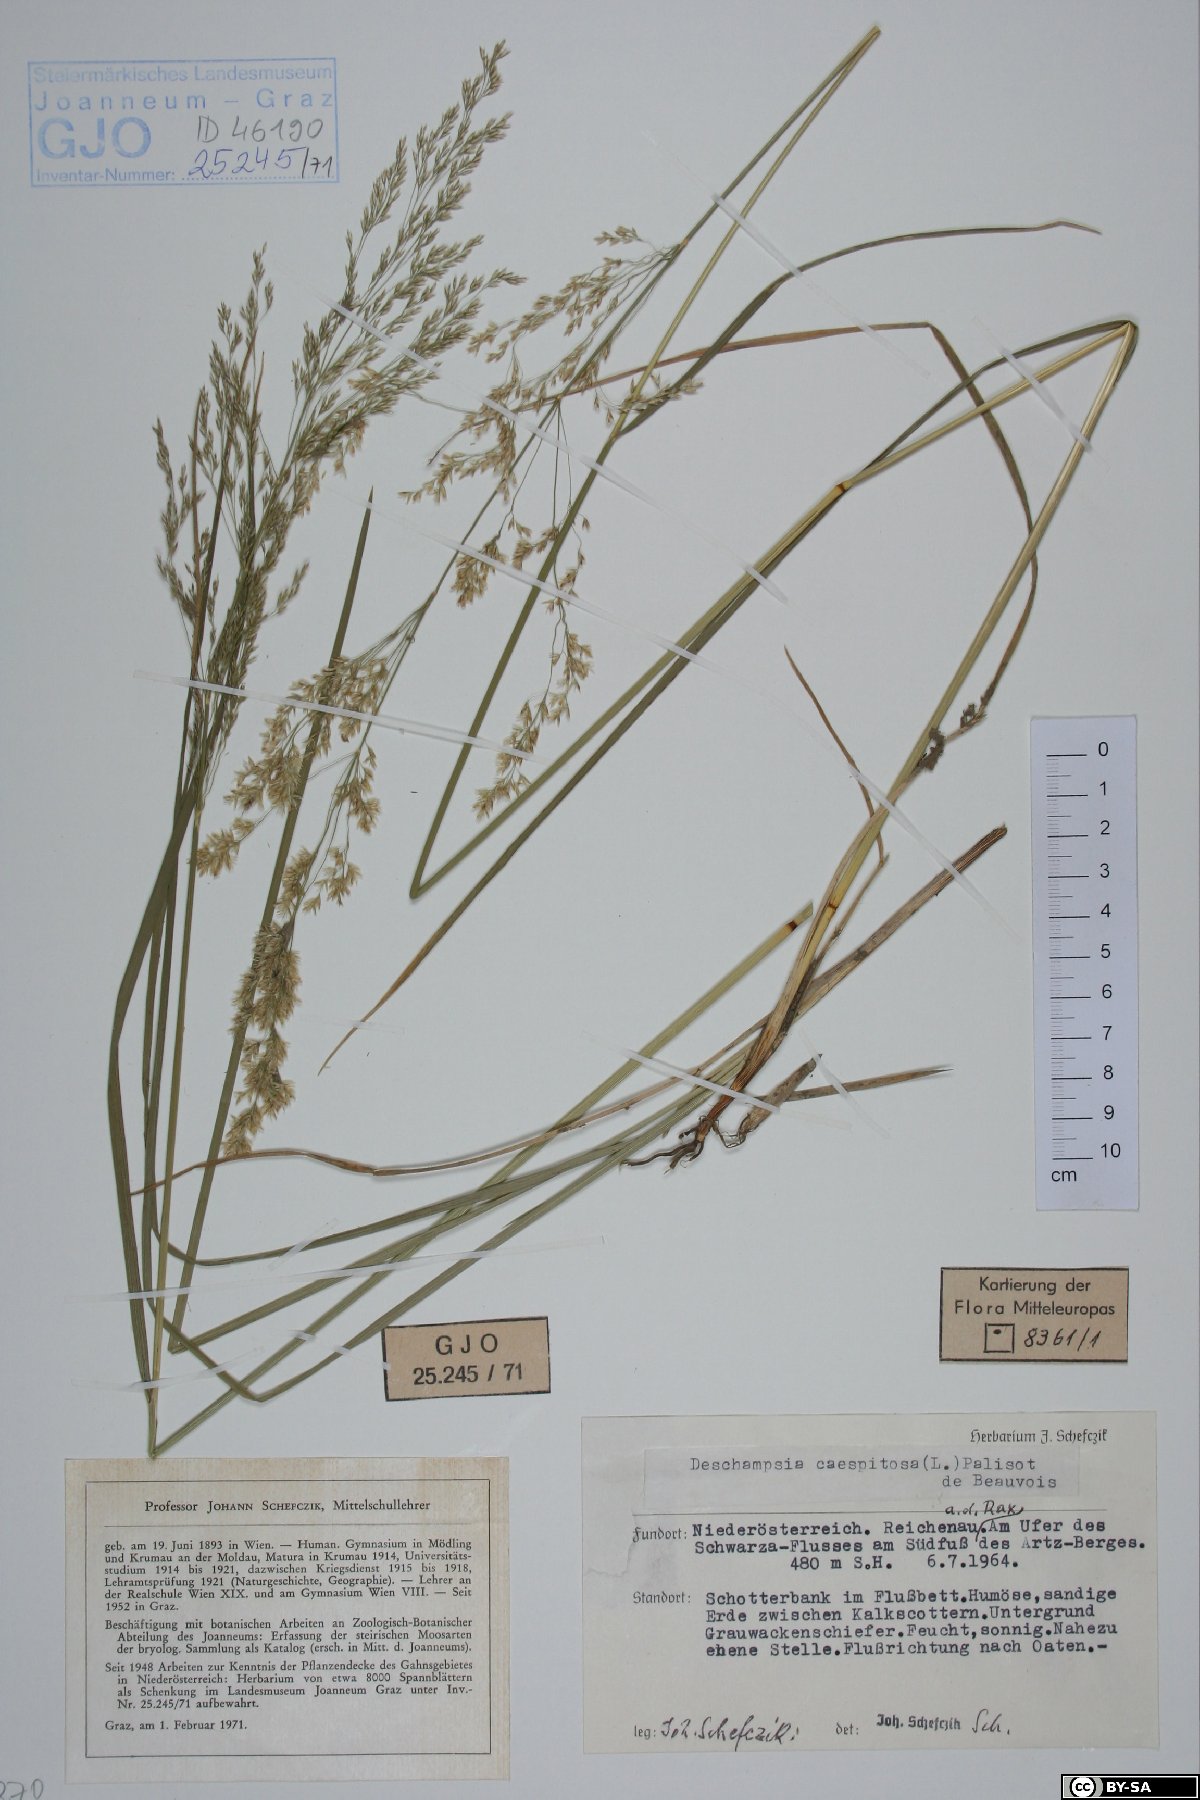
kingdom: Plantae
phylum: Tracheophyta
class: Liliopsida
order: Poales
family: Poaceae
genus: Deschampsia
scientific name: Deschampsia cespitosa
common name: Tufted hair-grass
